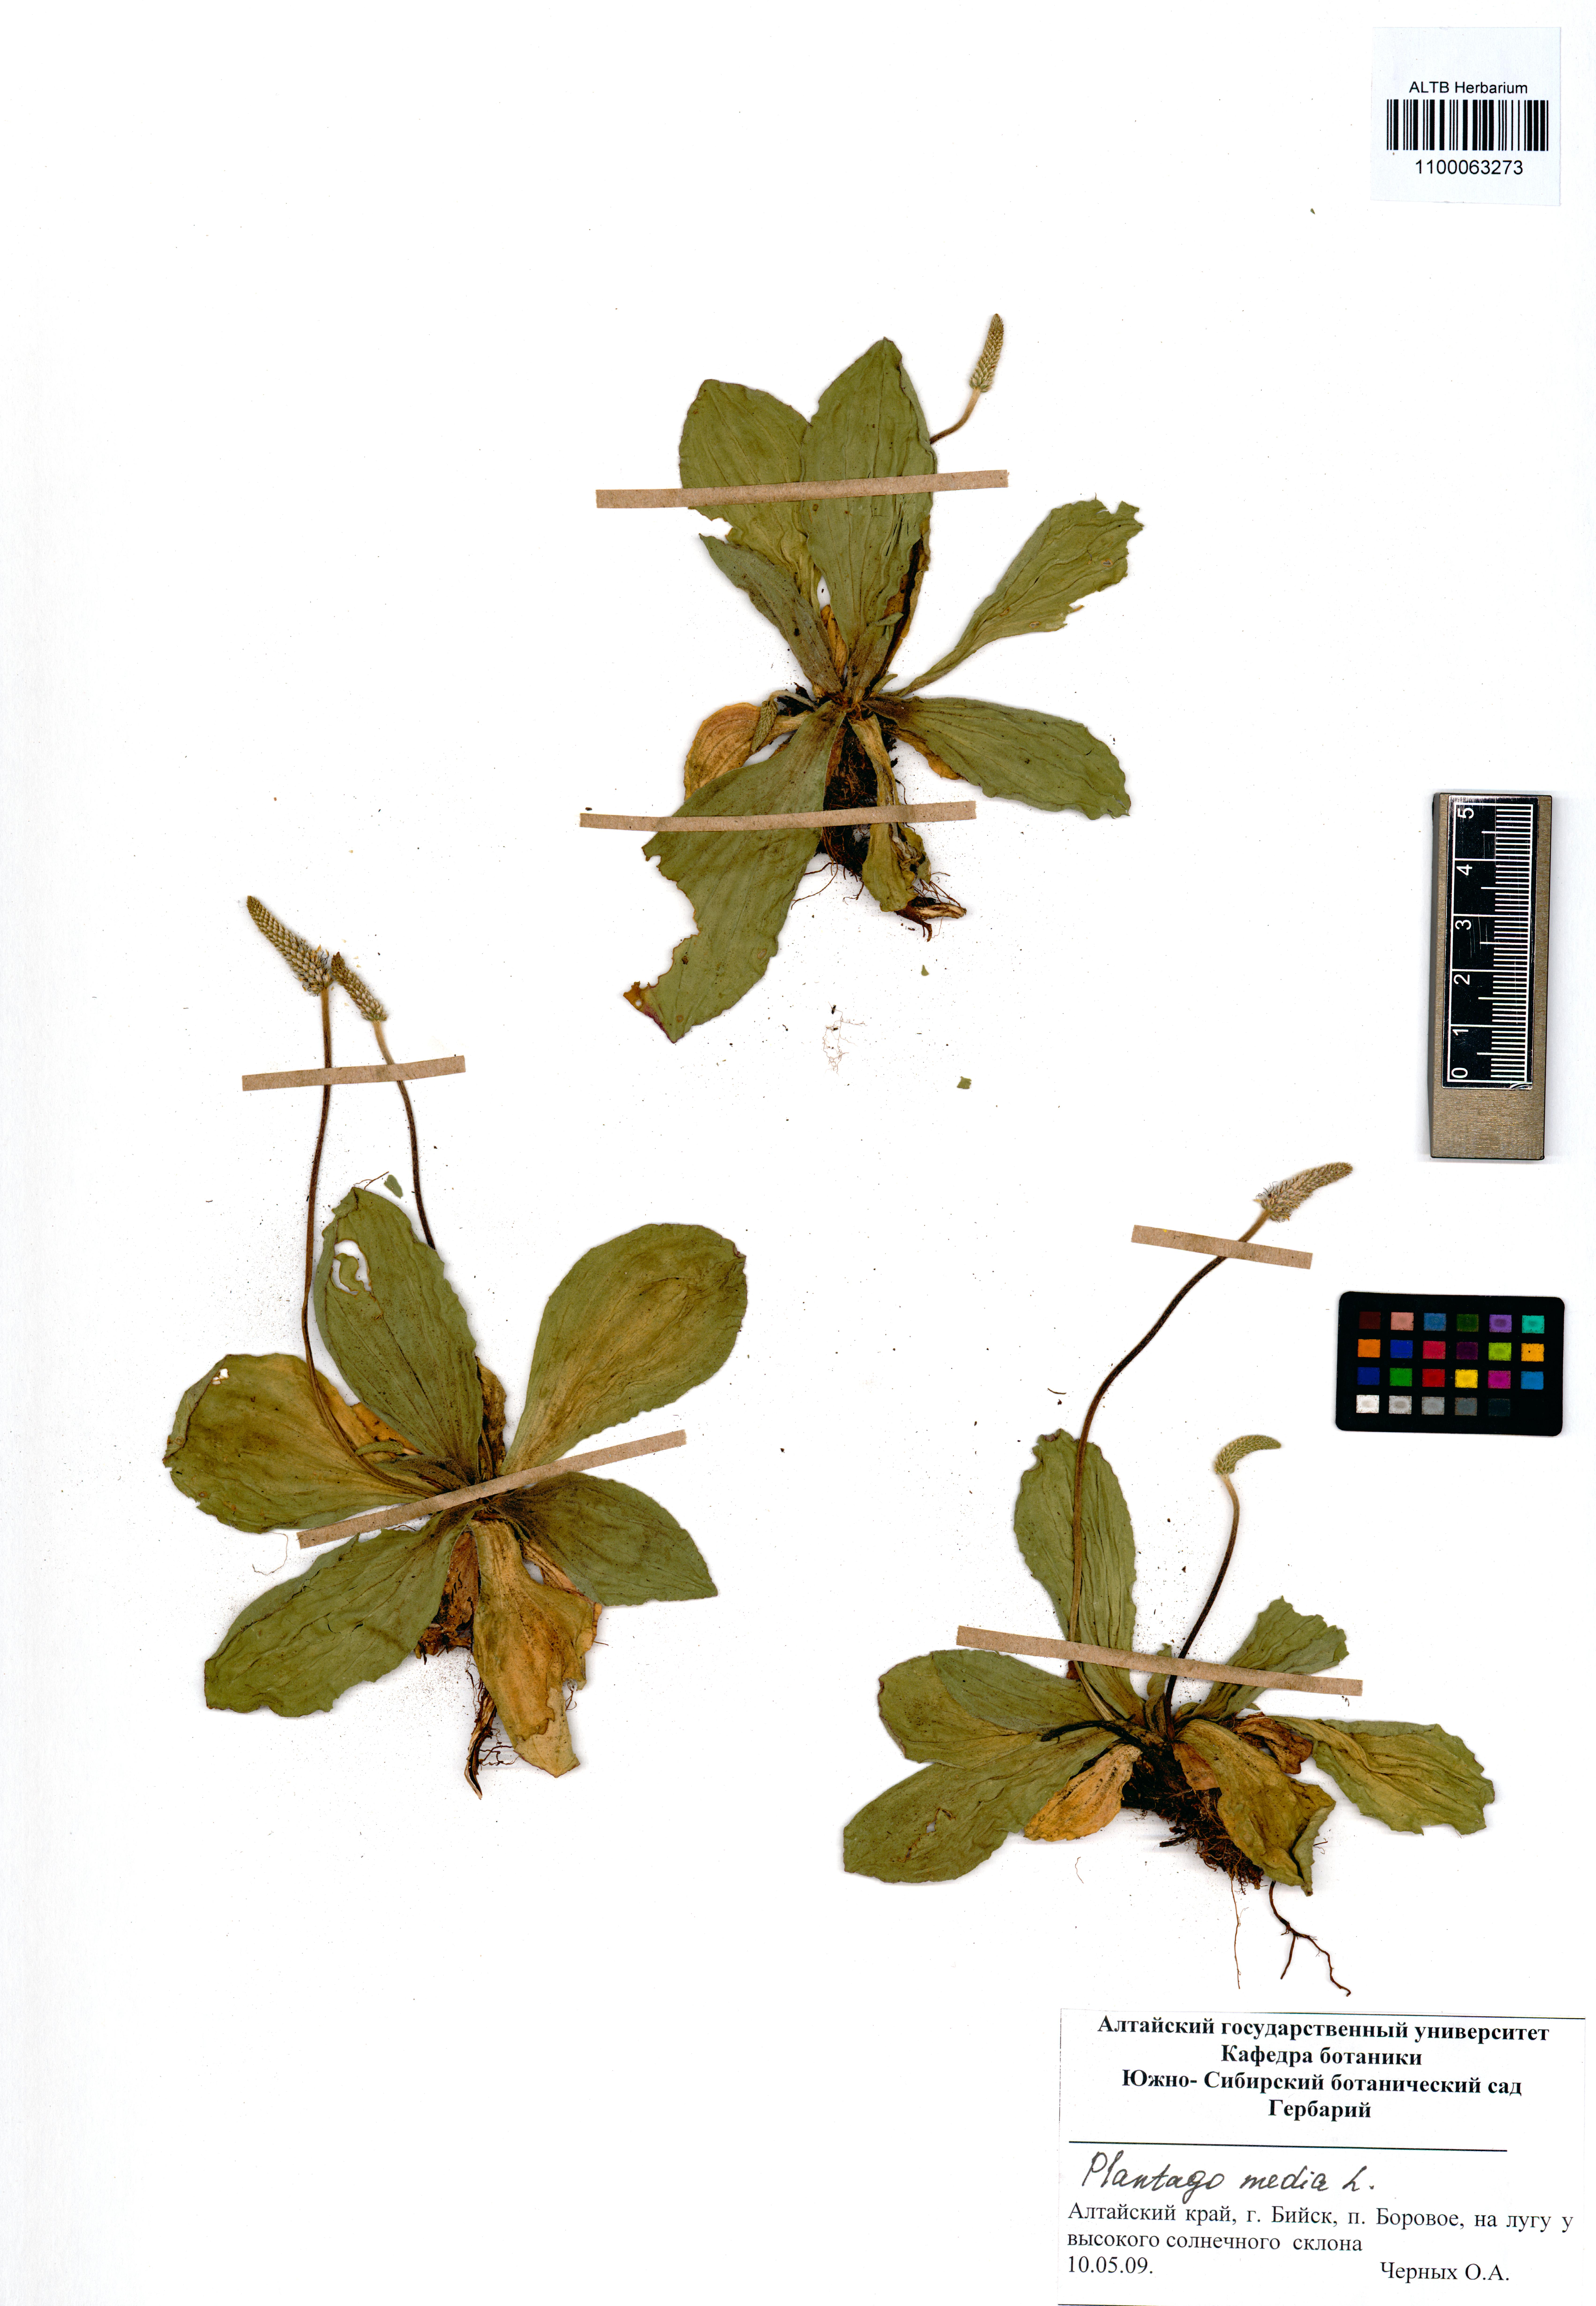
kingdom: Plantae
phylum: Tracheophyta
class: Magnoliopsida
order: Lamiales
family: Plantaginaceae
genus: Plantago
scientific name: Plantago media
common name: Hoary plantain
